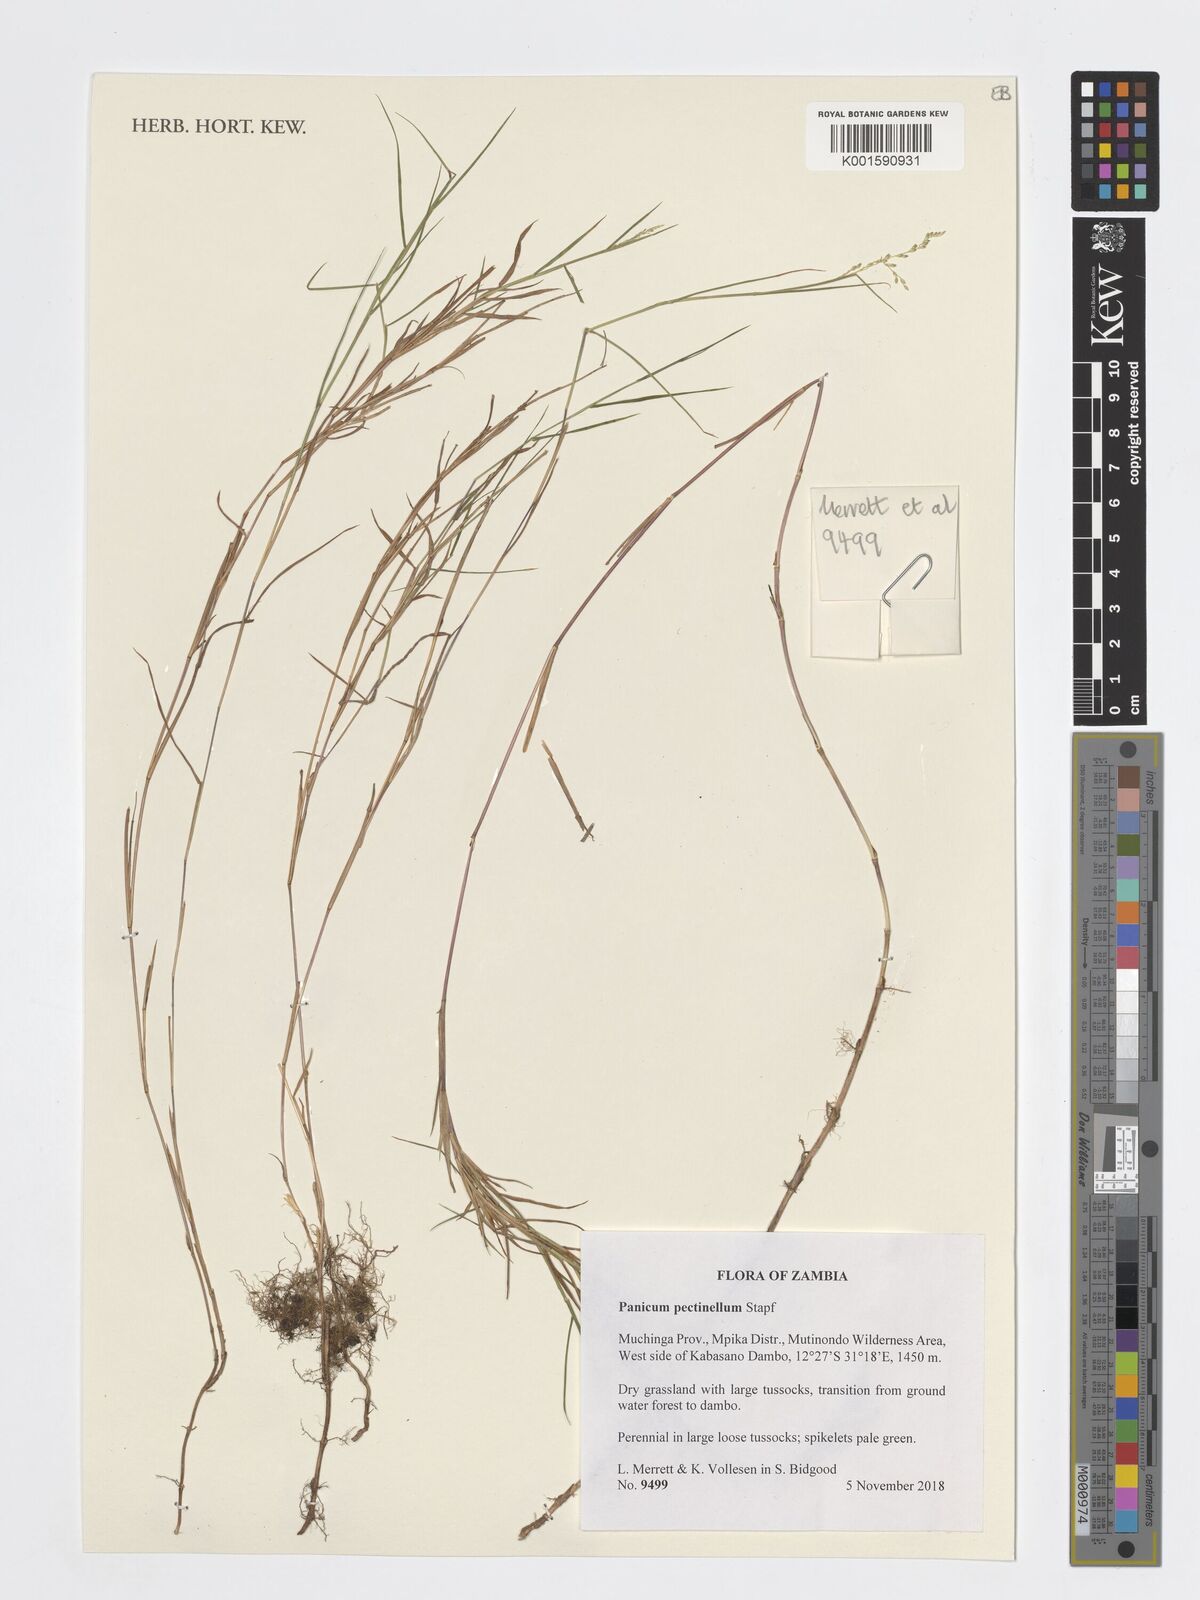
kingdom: Plantae
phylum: Tracheophyta
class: Liliopsida
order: Poales
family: Poaceae
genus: Adenochloa
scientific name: Adenochloa pectinella
